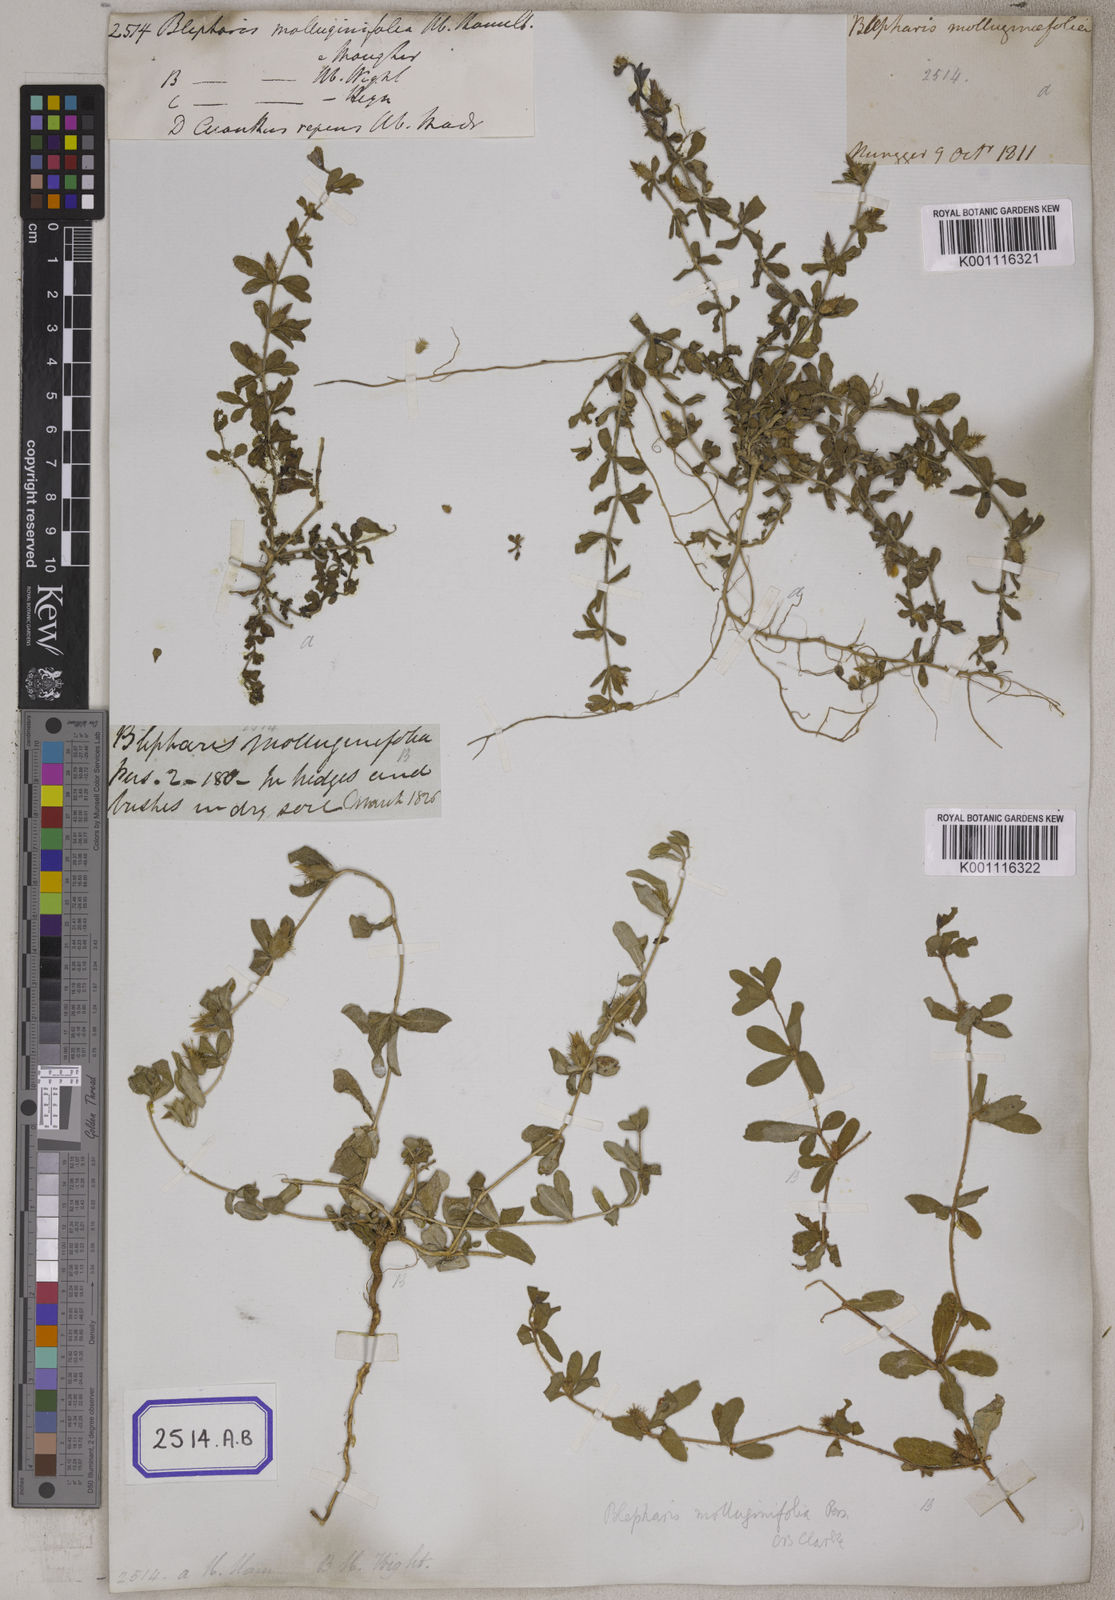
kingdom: Plantae
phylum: Tracheophyta
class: Magnoliopsida
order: Lamiales
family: Acanthaceae
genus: Blepharis
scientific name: Blepharis integrifolia
